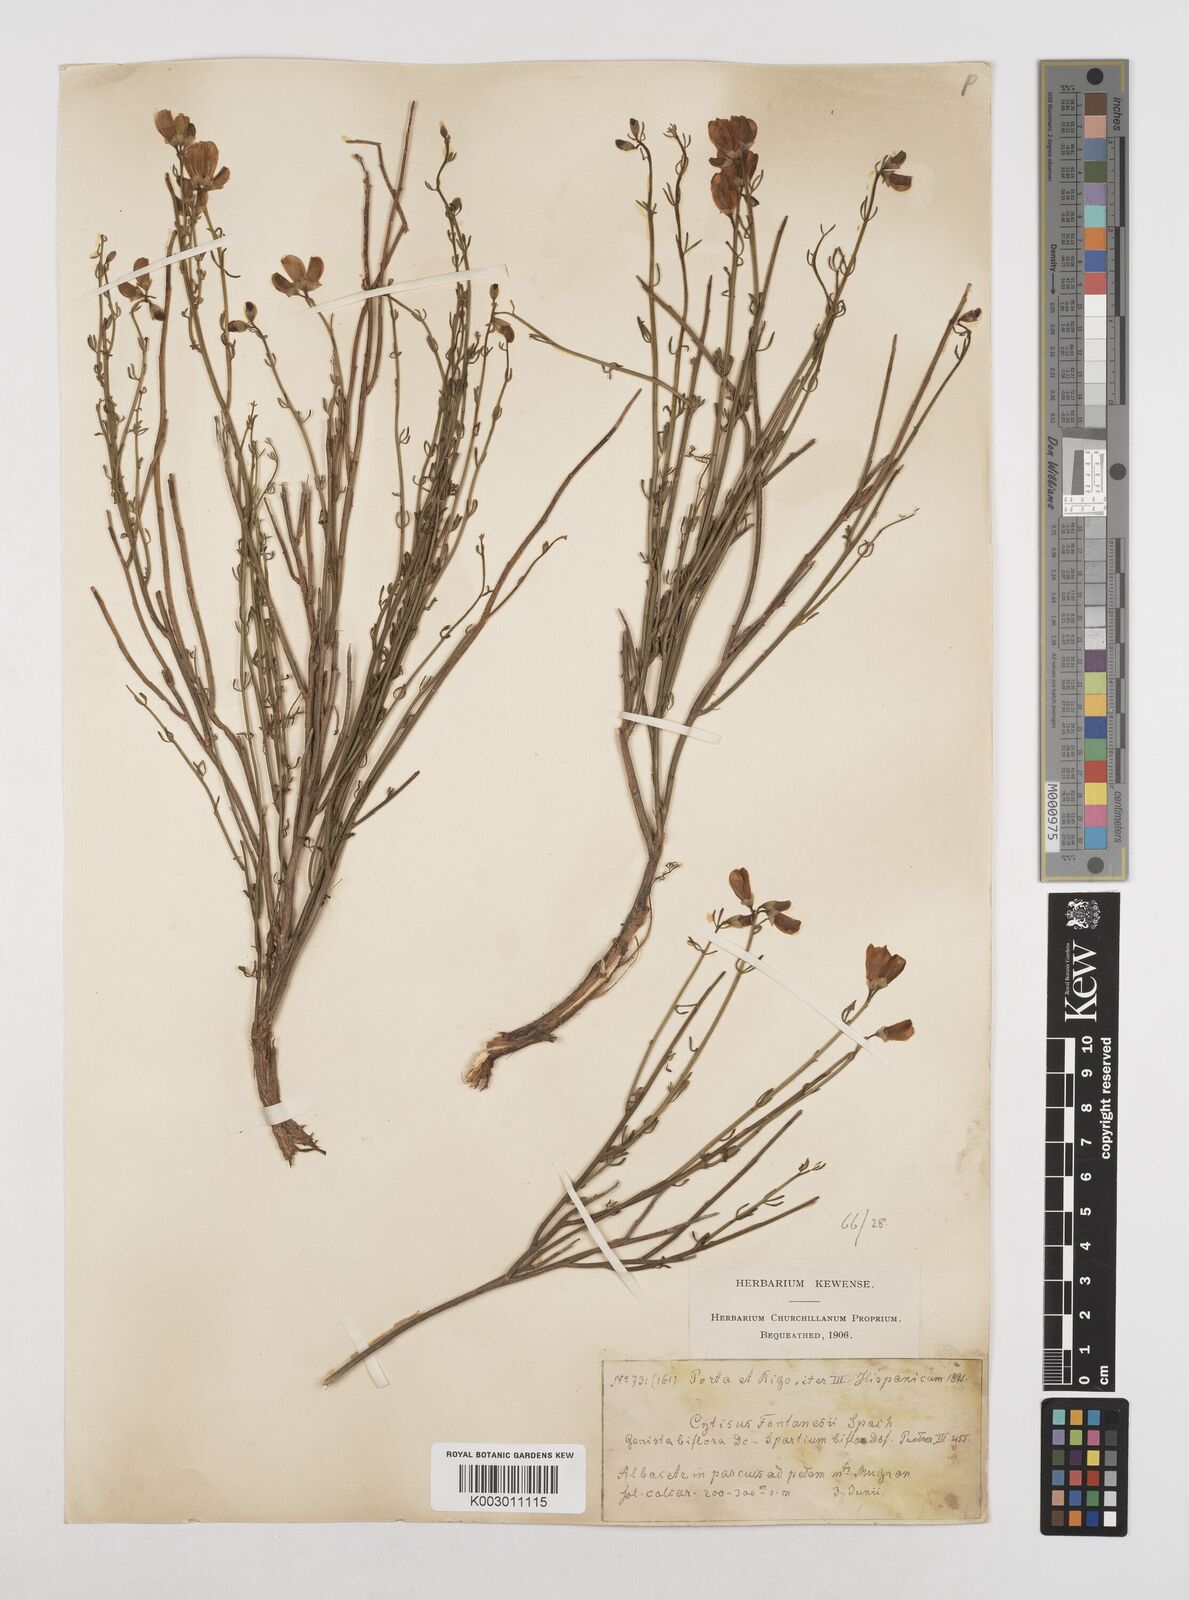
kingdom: Plantae
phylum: Tracheophyta
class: Magnoliopsida
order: Fabales
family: Fabaceae
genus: Cytisus
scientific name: Cytisus fontanesii
